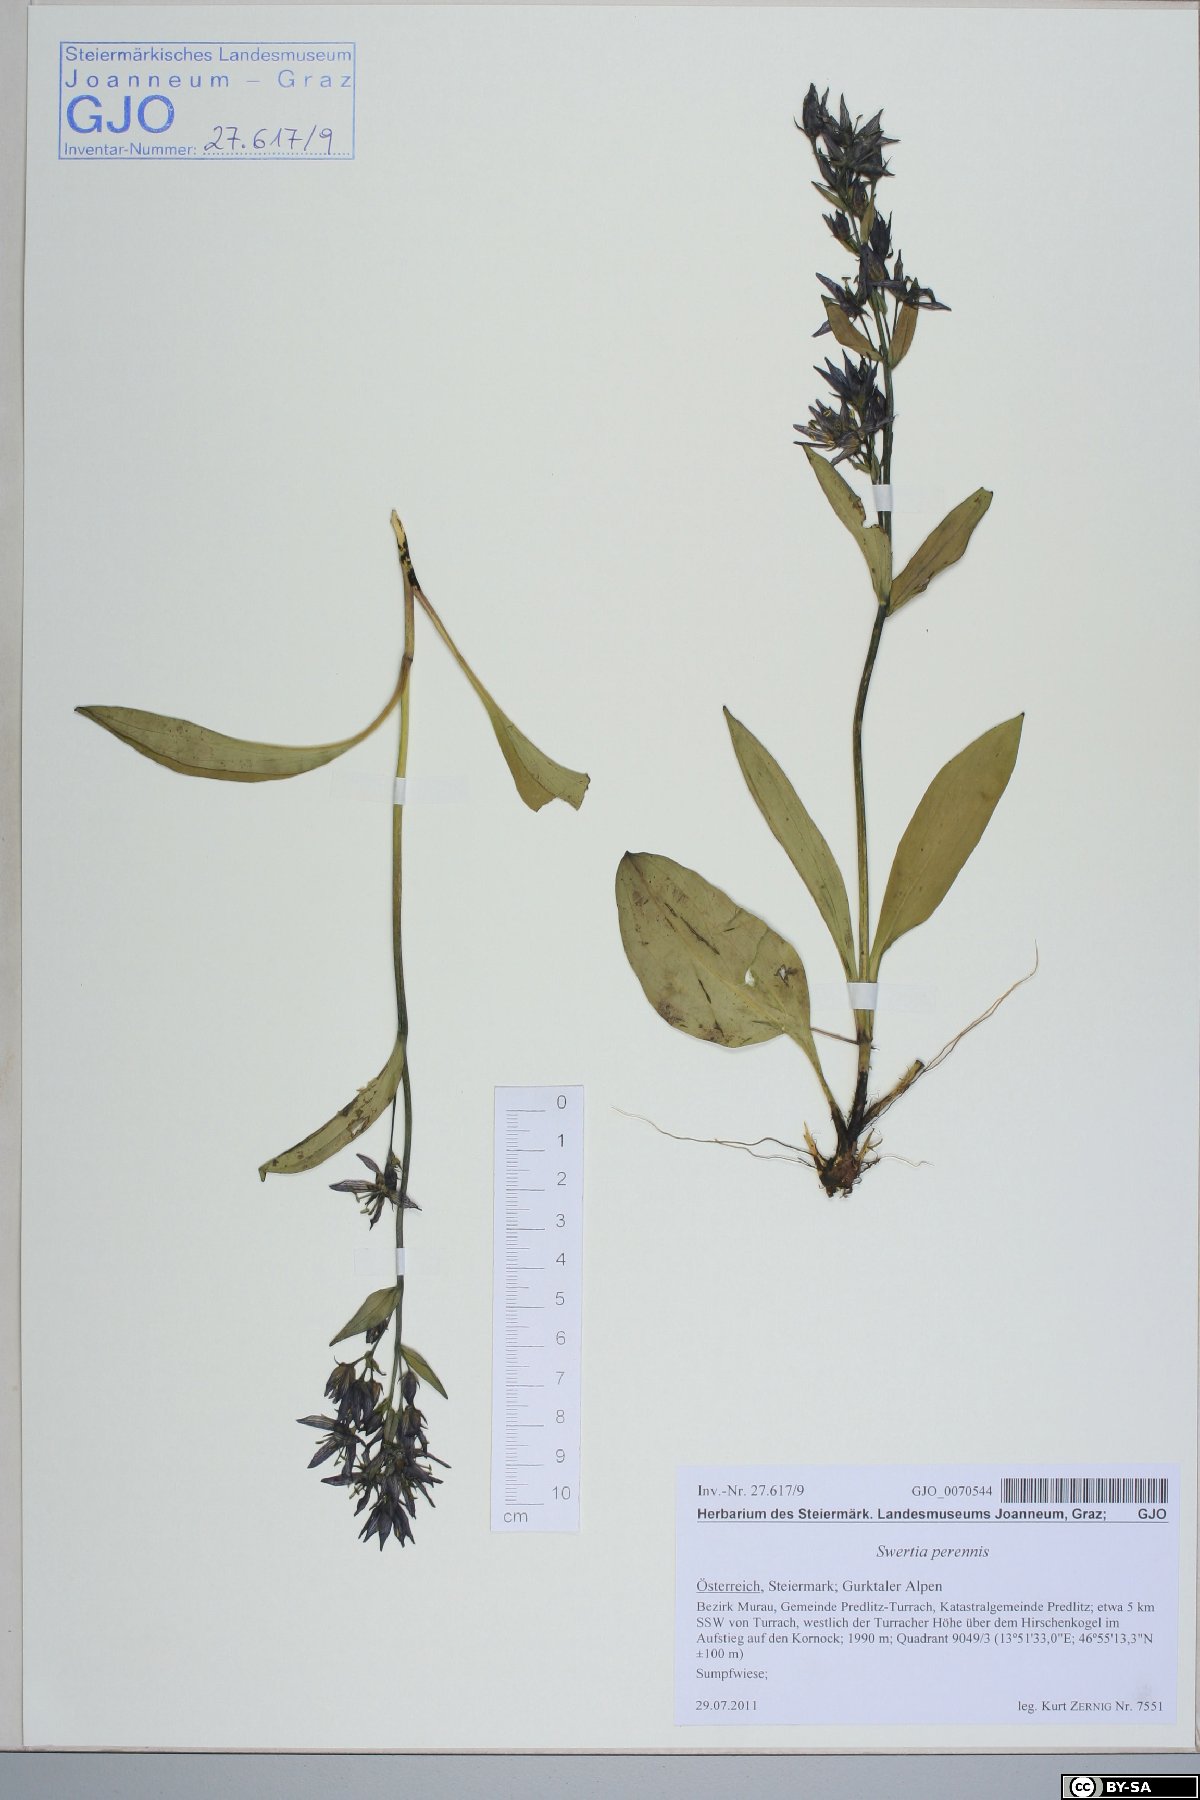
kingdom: Plantae
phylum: Tracheophyta
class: Magnoliopsida
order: Gentianales
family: Gentianaceae
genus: Swertia
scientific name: Swertia perennis
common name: Alpine bog swertia
